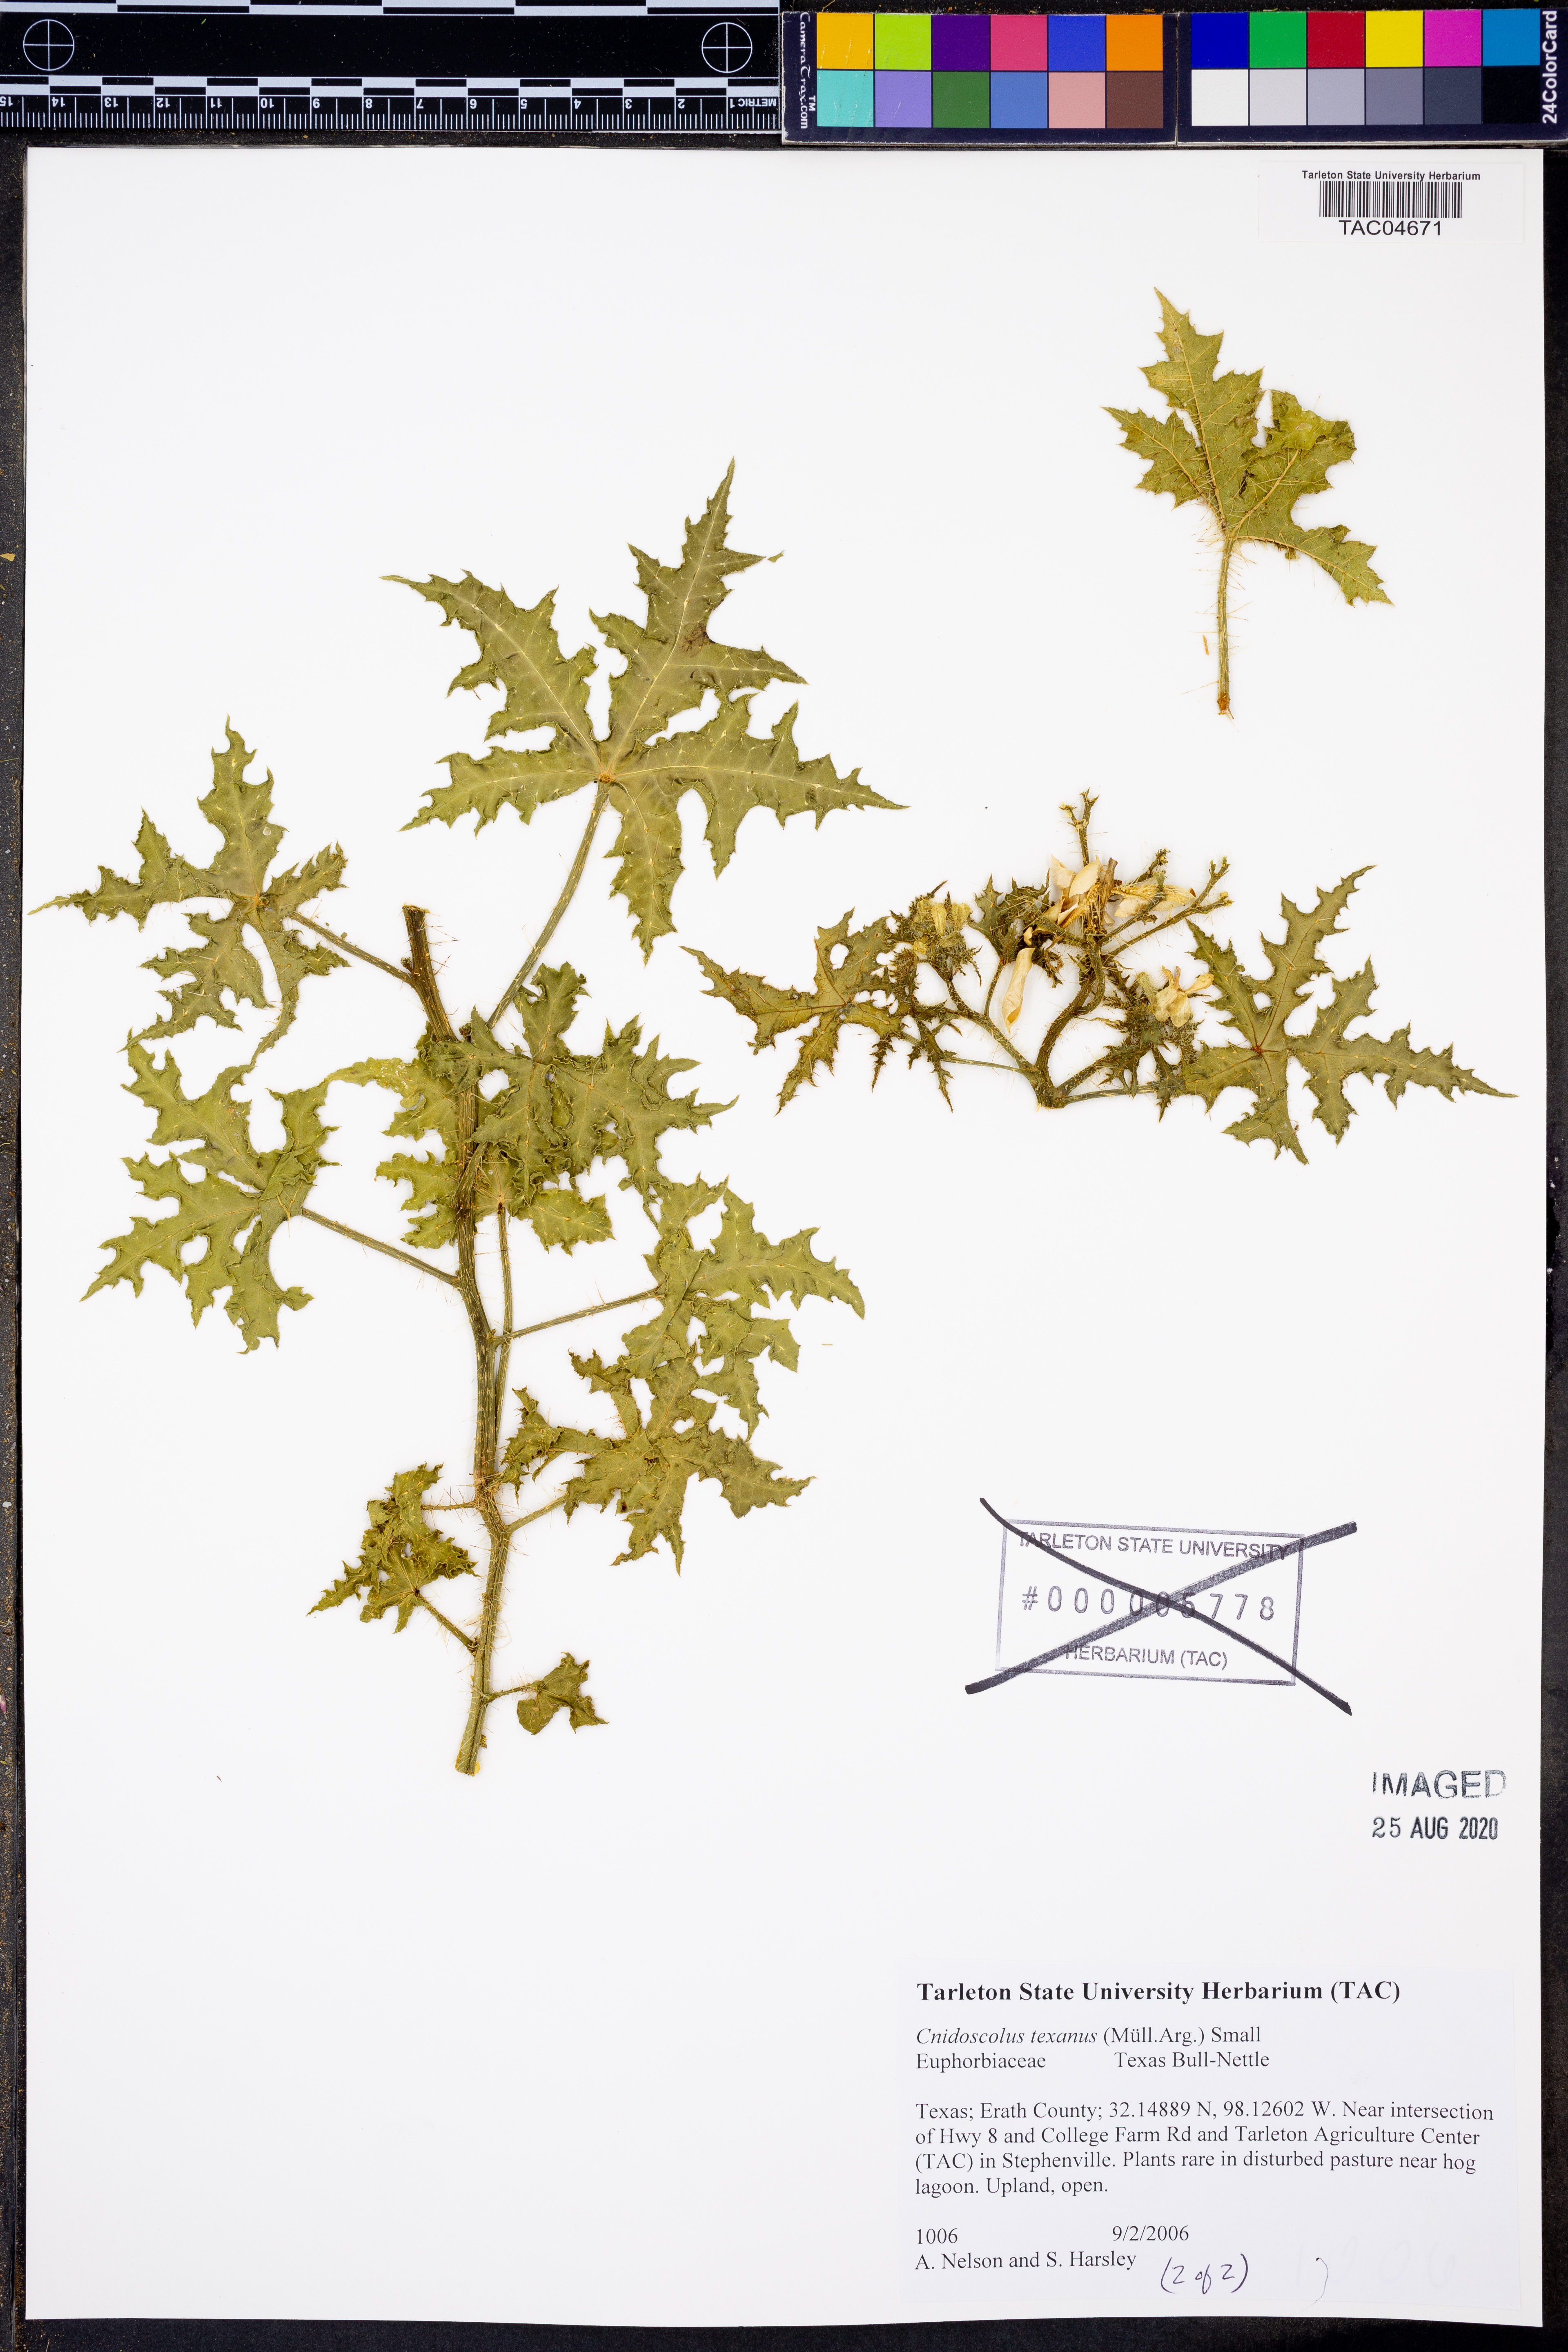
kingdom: Plantae
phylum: Tracheophyta
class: Magnoliopsida
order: Malpighiales
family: Euphorbiaceae
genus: Cnidoscolus
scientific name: Cnidoscolus texanus
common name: Texas bull-nettle
